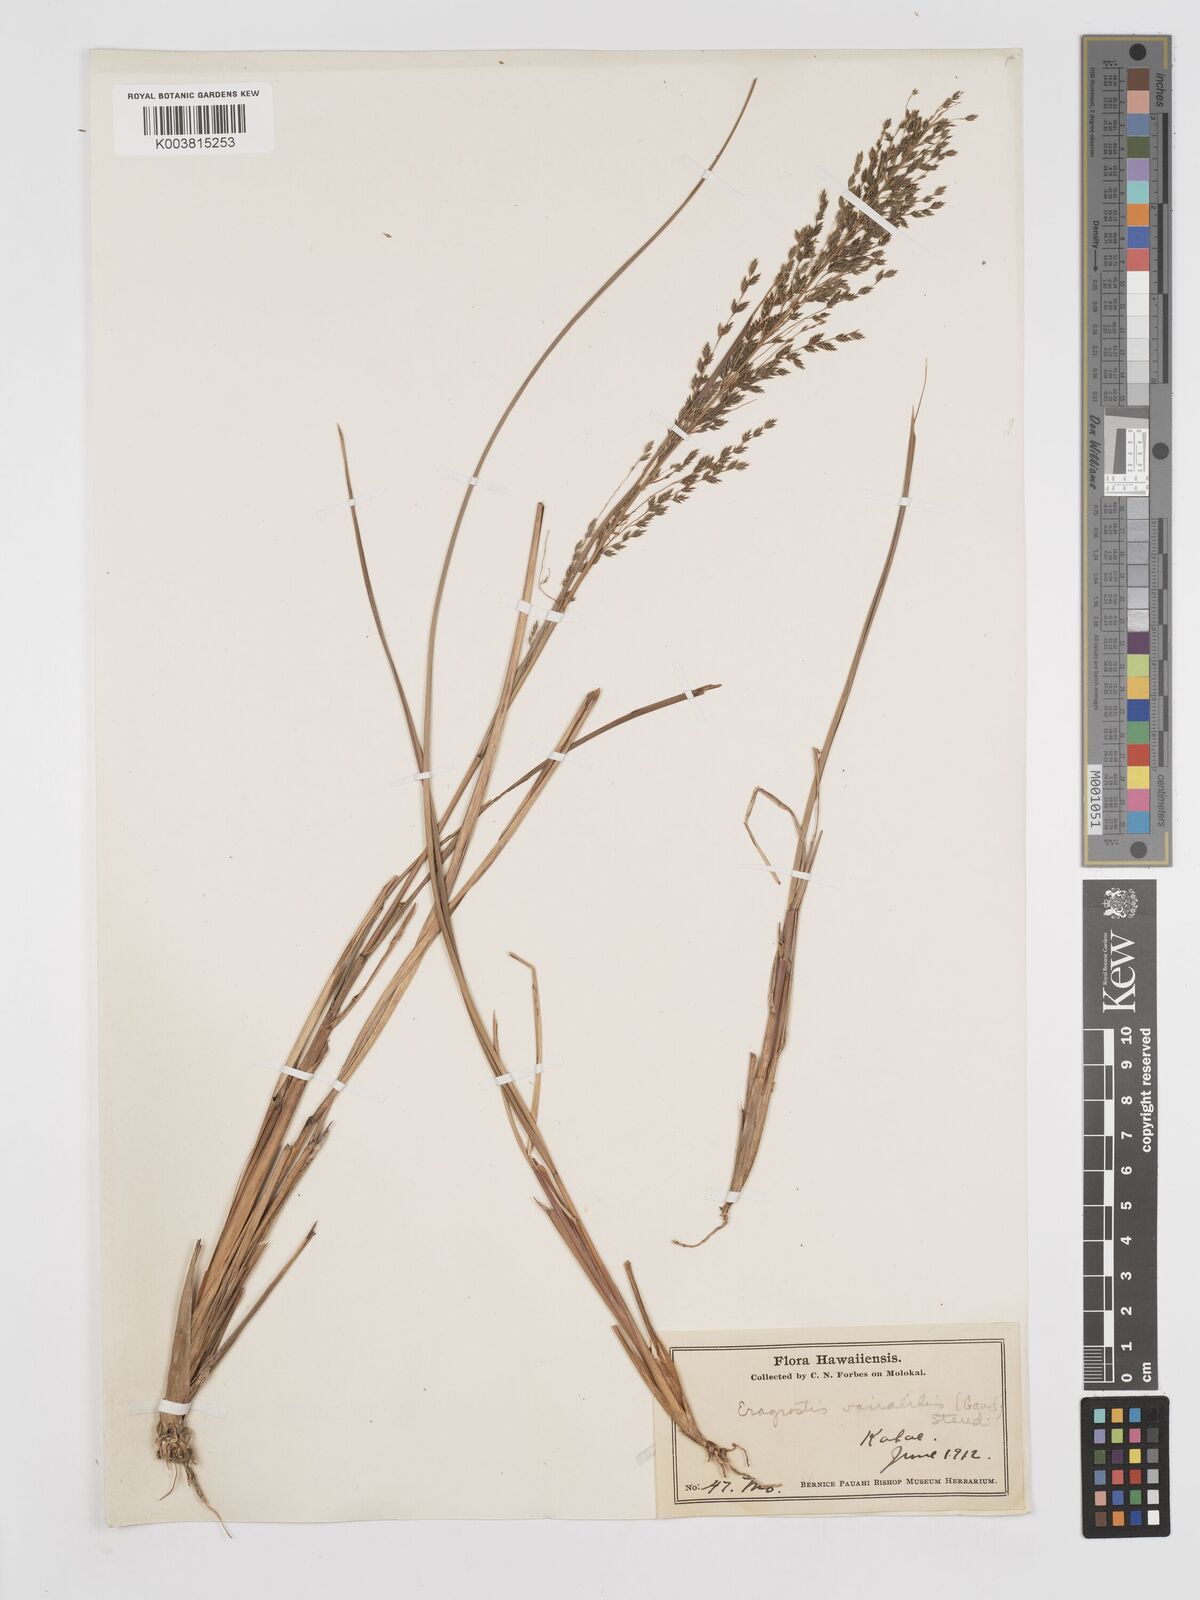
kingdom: Plantae
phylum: Tracheophyta
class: Liliopsida
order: Poales
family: Poaceae
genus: Eragrostis
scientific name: Eragrostis variabilis
